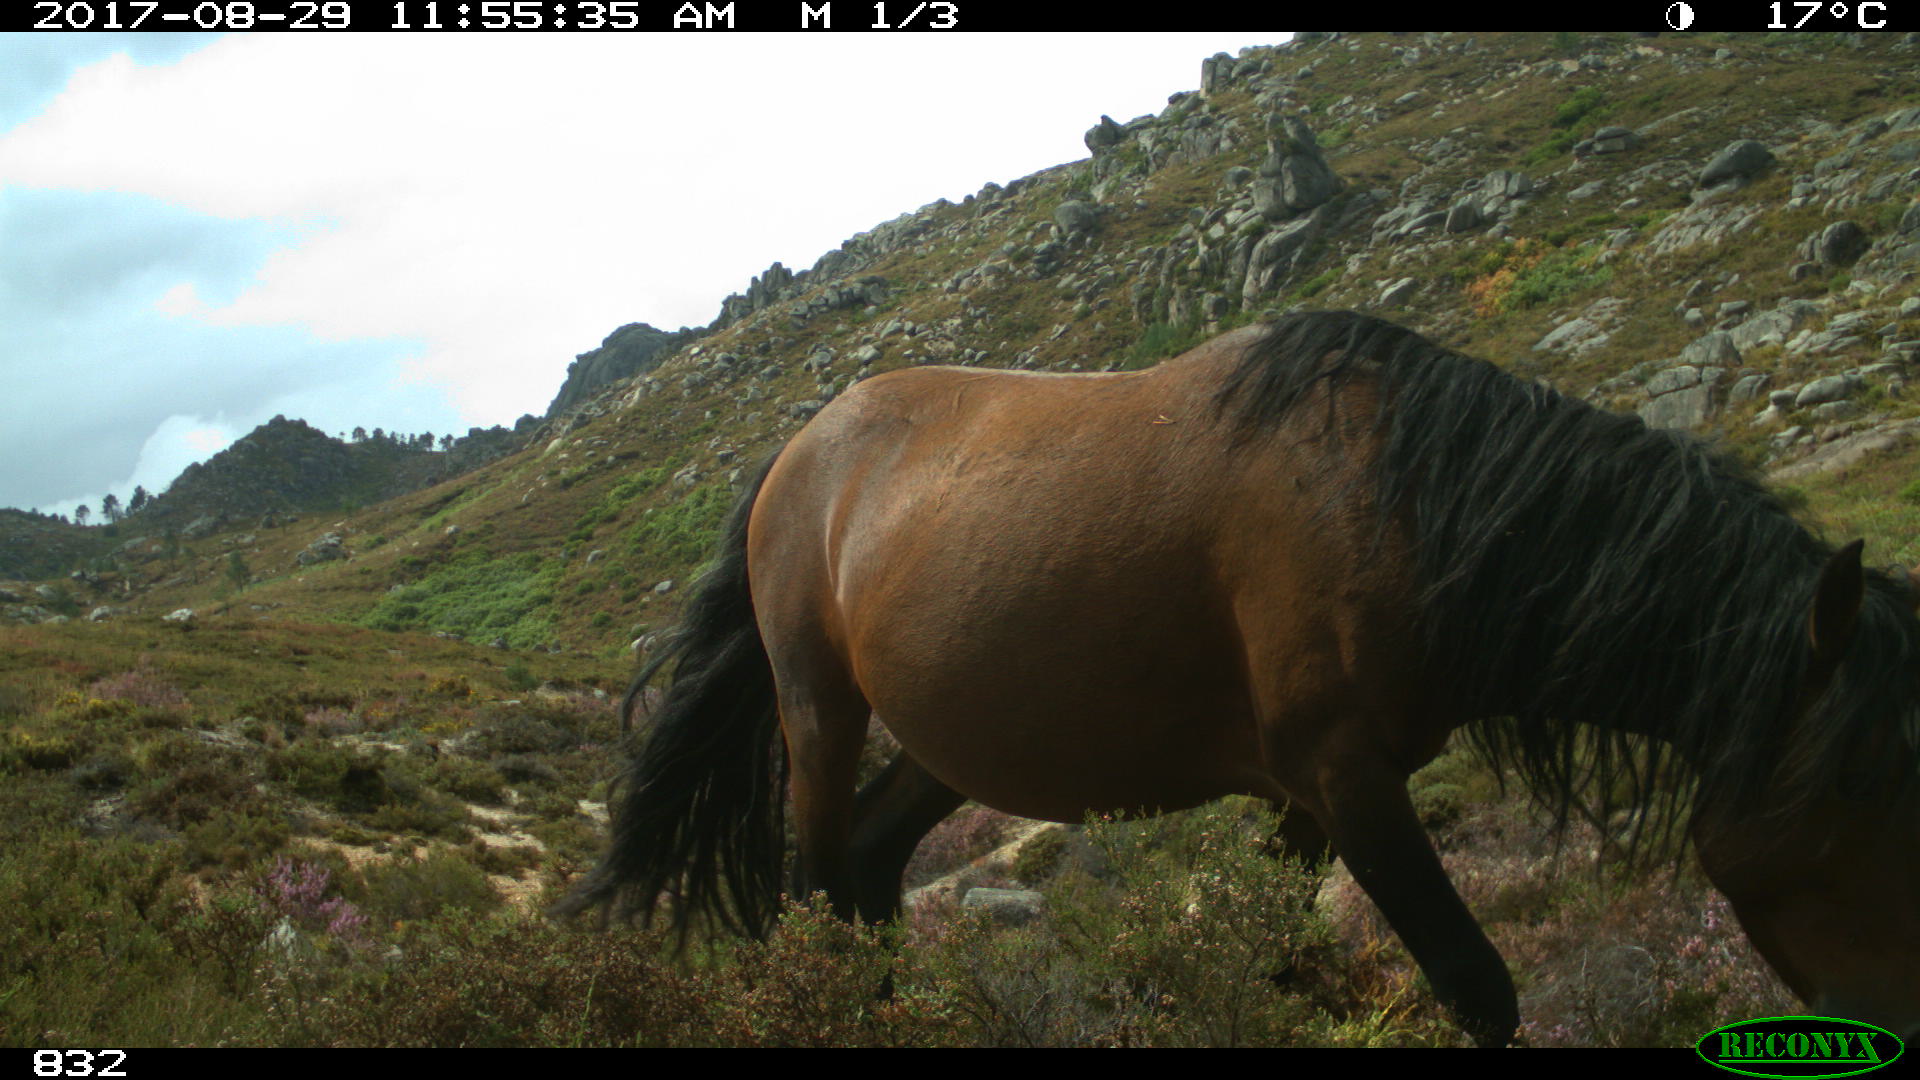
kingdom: Animalia
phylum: Chordata
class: Mammalia
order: Perissodactyla
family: Equidae
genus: Equus
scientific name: Equus caballus
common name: Horse
